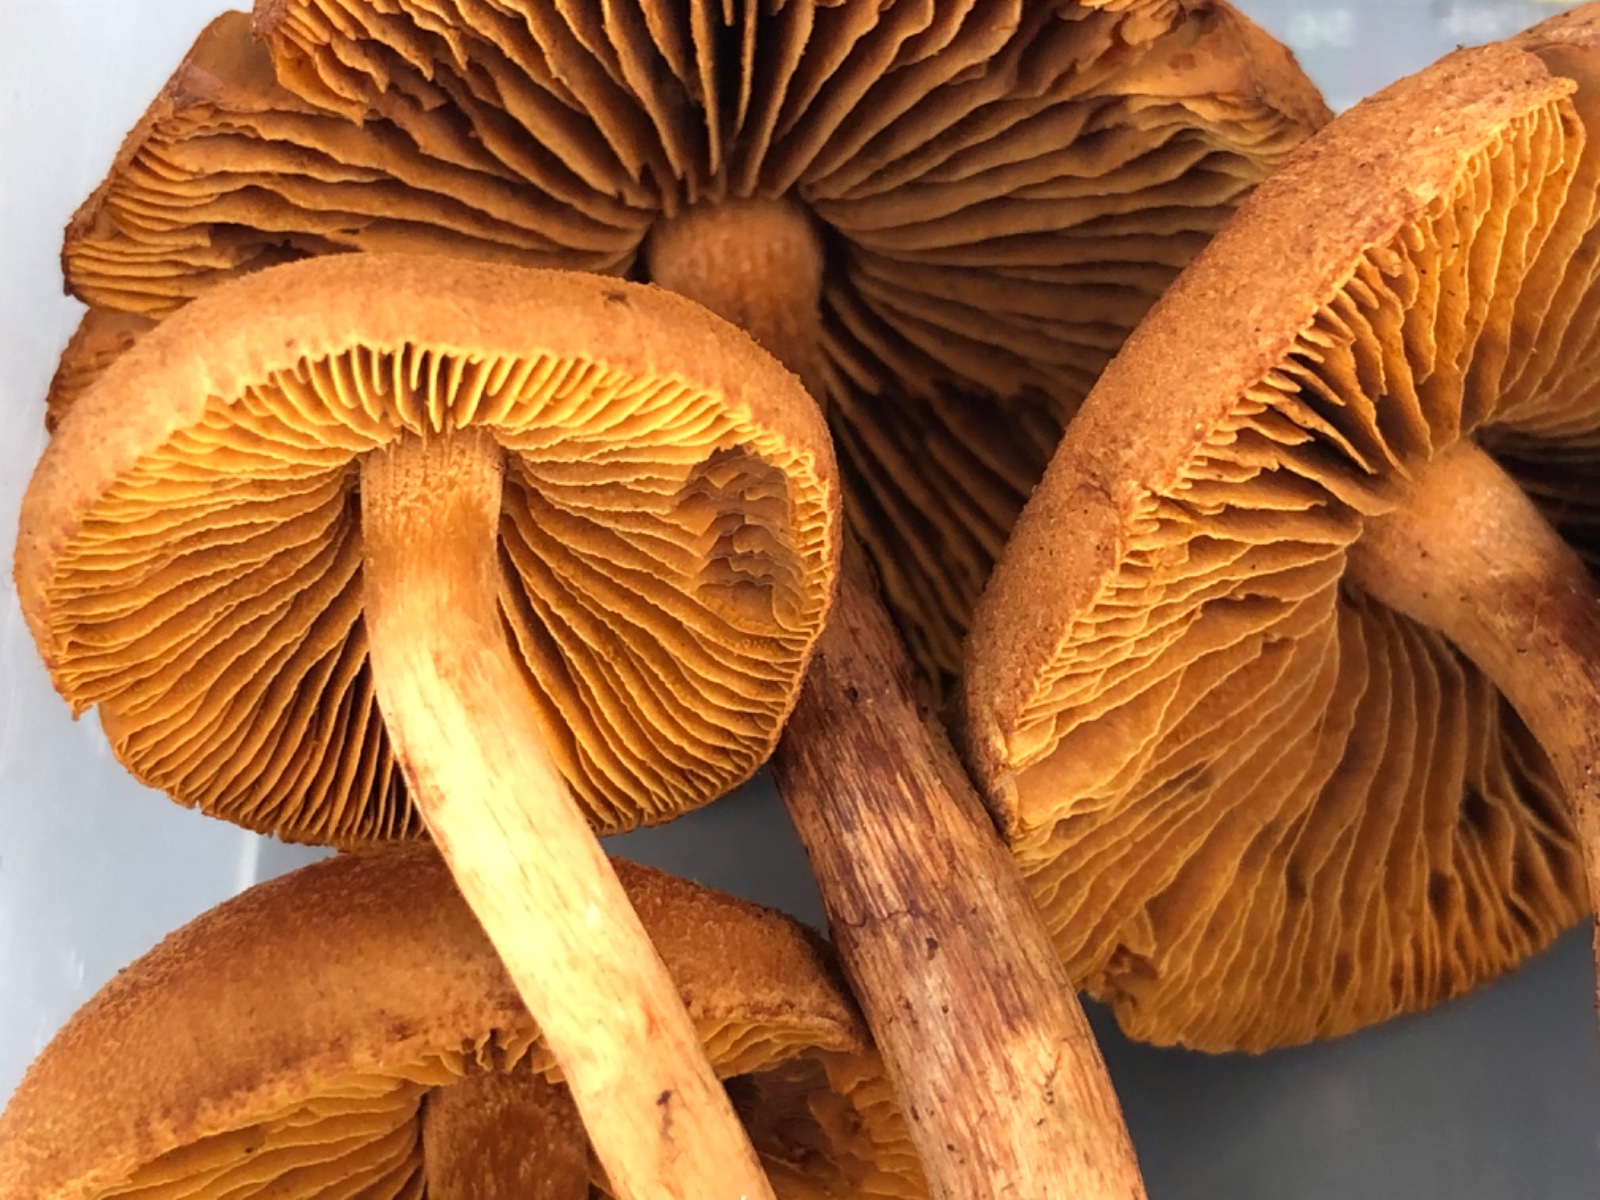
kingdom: Fungi
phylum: Basidiomycota
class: Agaricomycetes
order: Agaricales
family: Cortinariaceae
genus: Cortinarius
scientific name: Cortinarius
